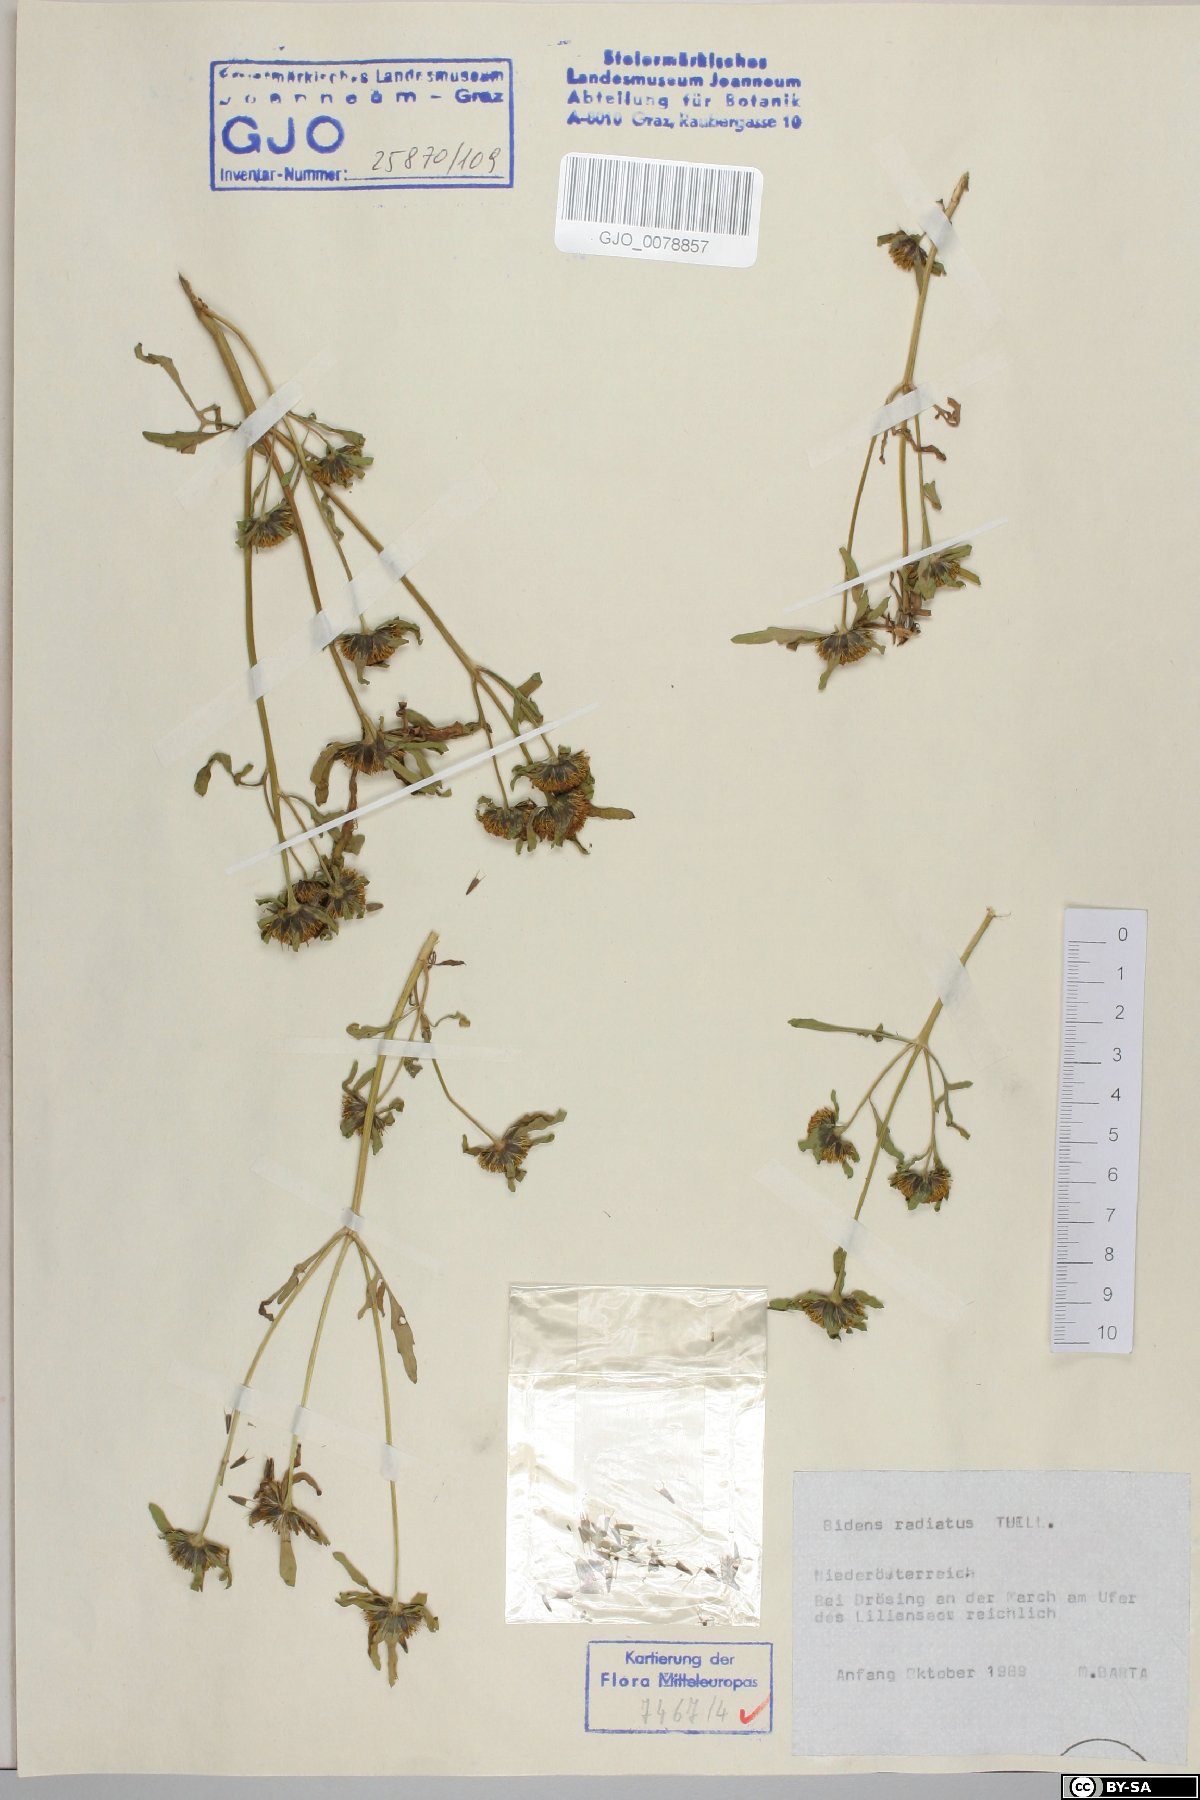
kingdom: Plantae
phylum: Tracheophyta
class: Magnoliopsida
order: Asterales
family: Asteraceae
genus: Bidens
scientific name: Bidens radiata
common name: Radiating bur-marigold
